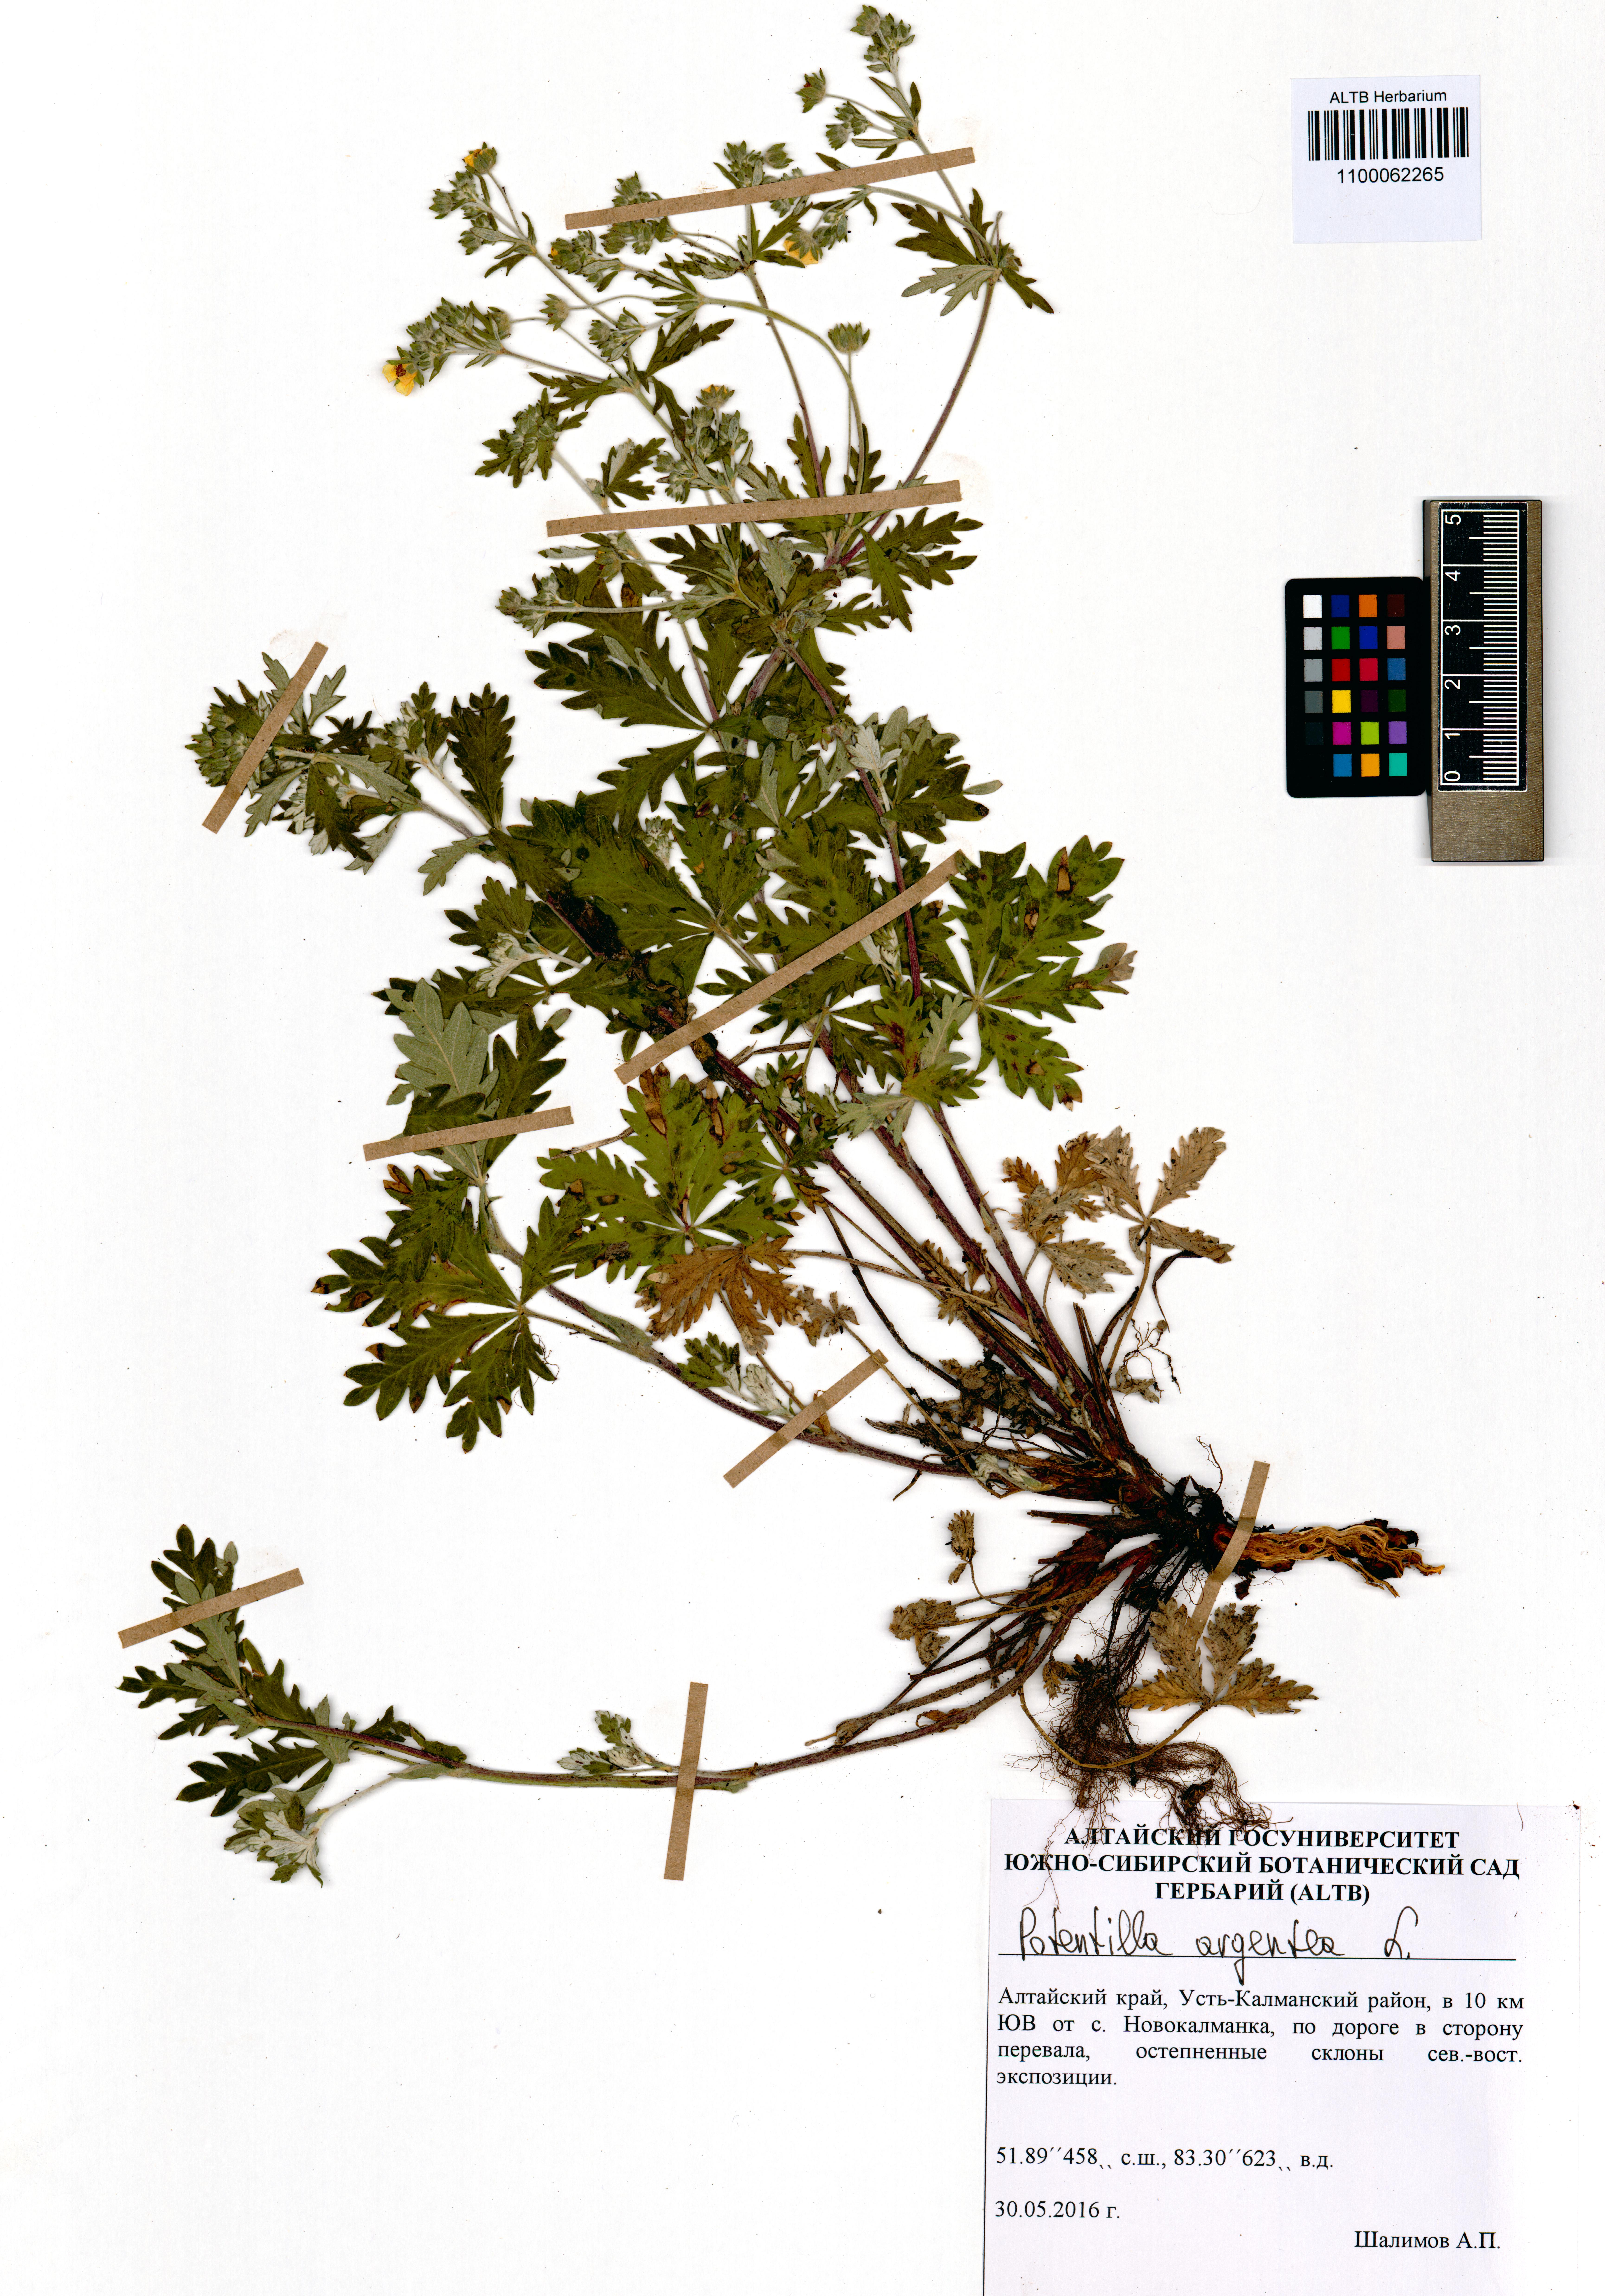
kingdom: Plantae
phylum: Tracheophyta
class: Magnoliopsida
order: Rosales
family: Rosaceae
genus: Potentilla
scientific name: Potentilla argentea
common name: Hoary cinquefoil
